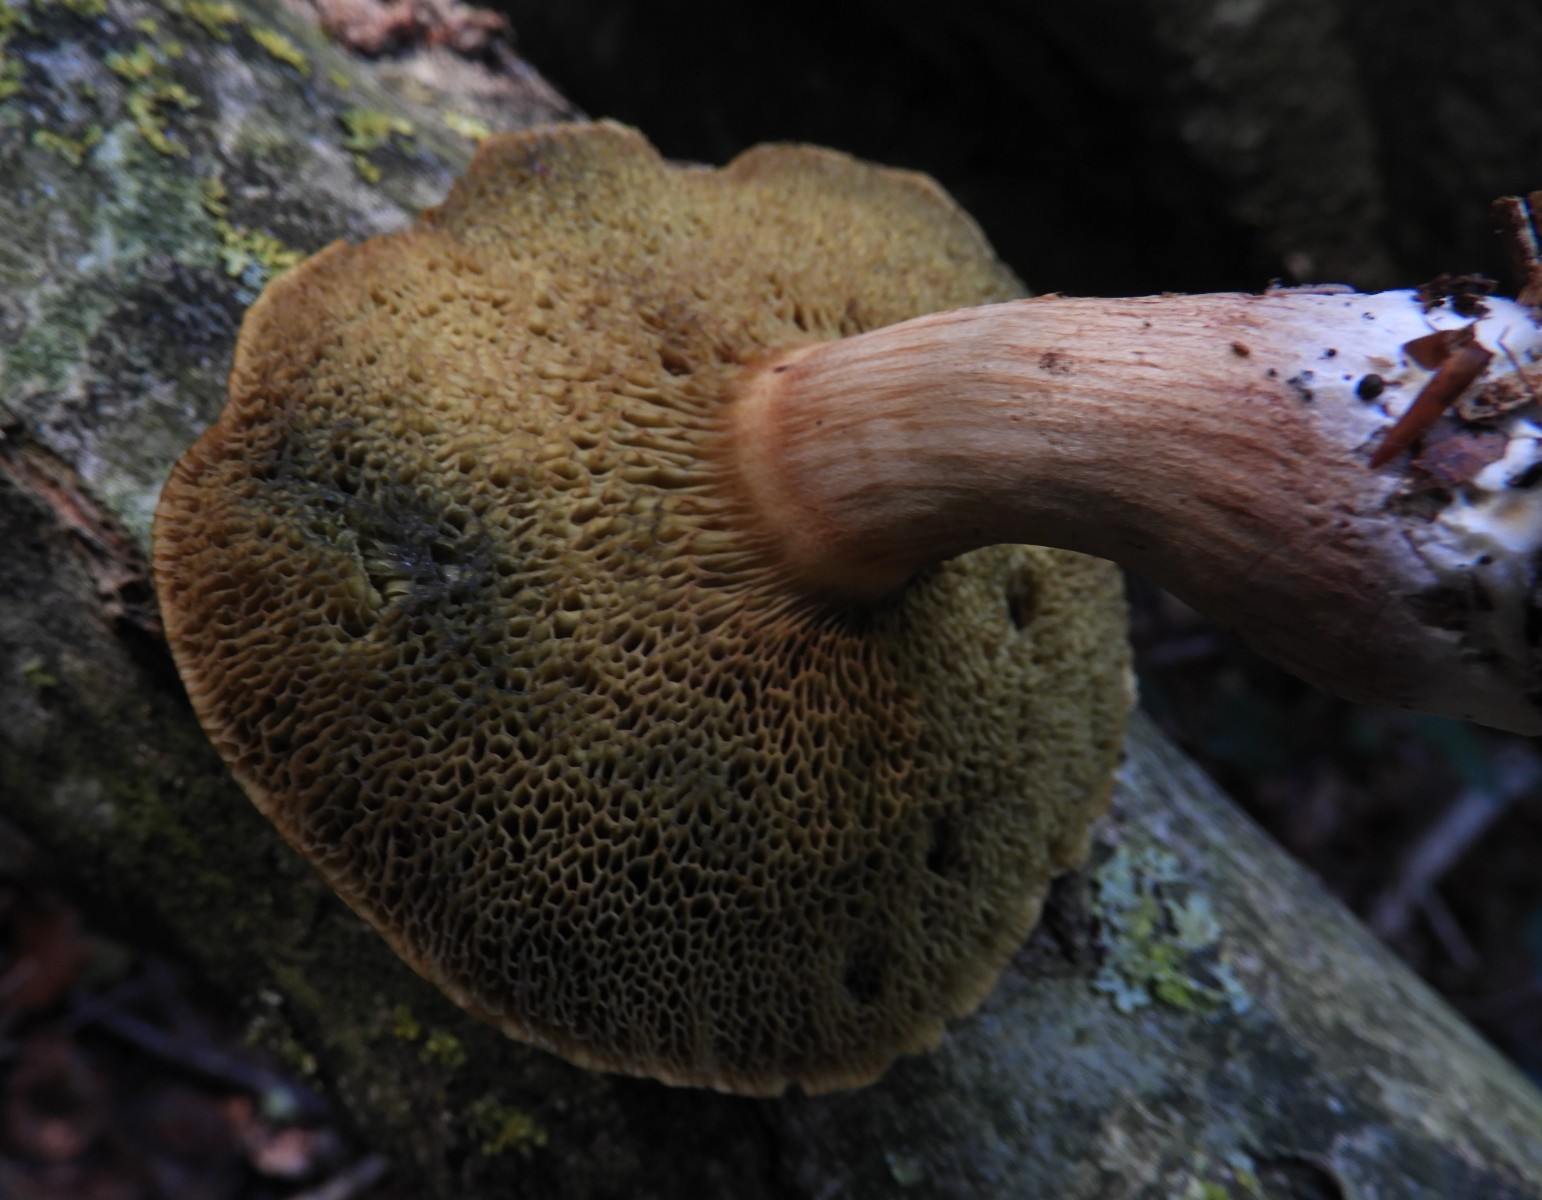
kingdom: Fungi
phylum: Basidiomycota
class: Agaricomycetes
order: Boletales
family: Boletaceae
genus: Xerocomellus
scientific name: Xerocomellus
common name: dværgrørhat
